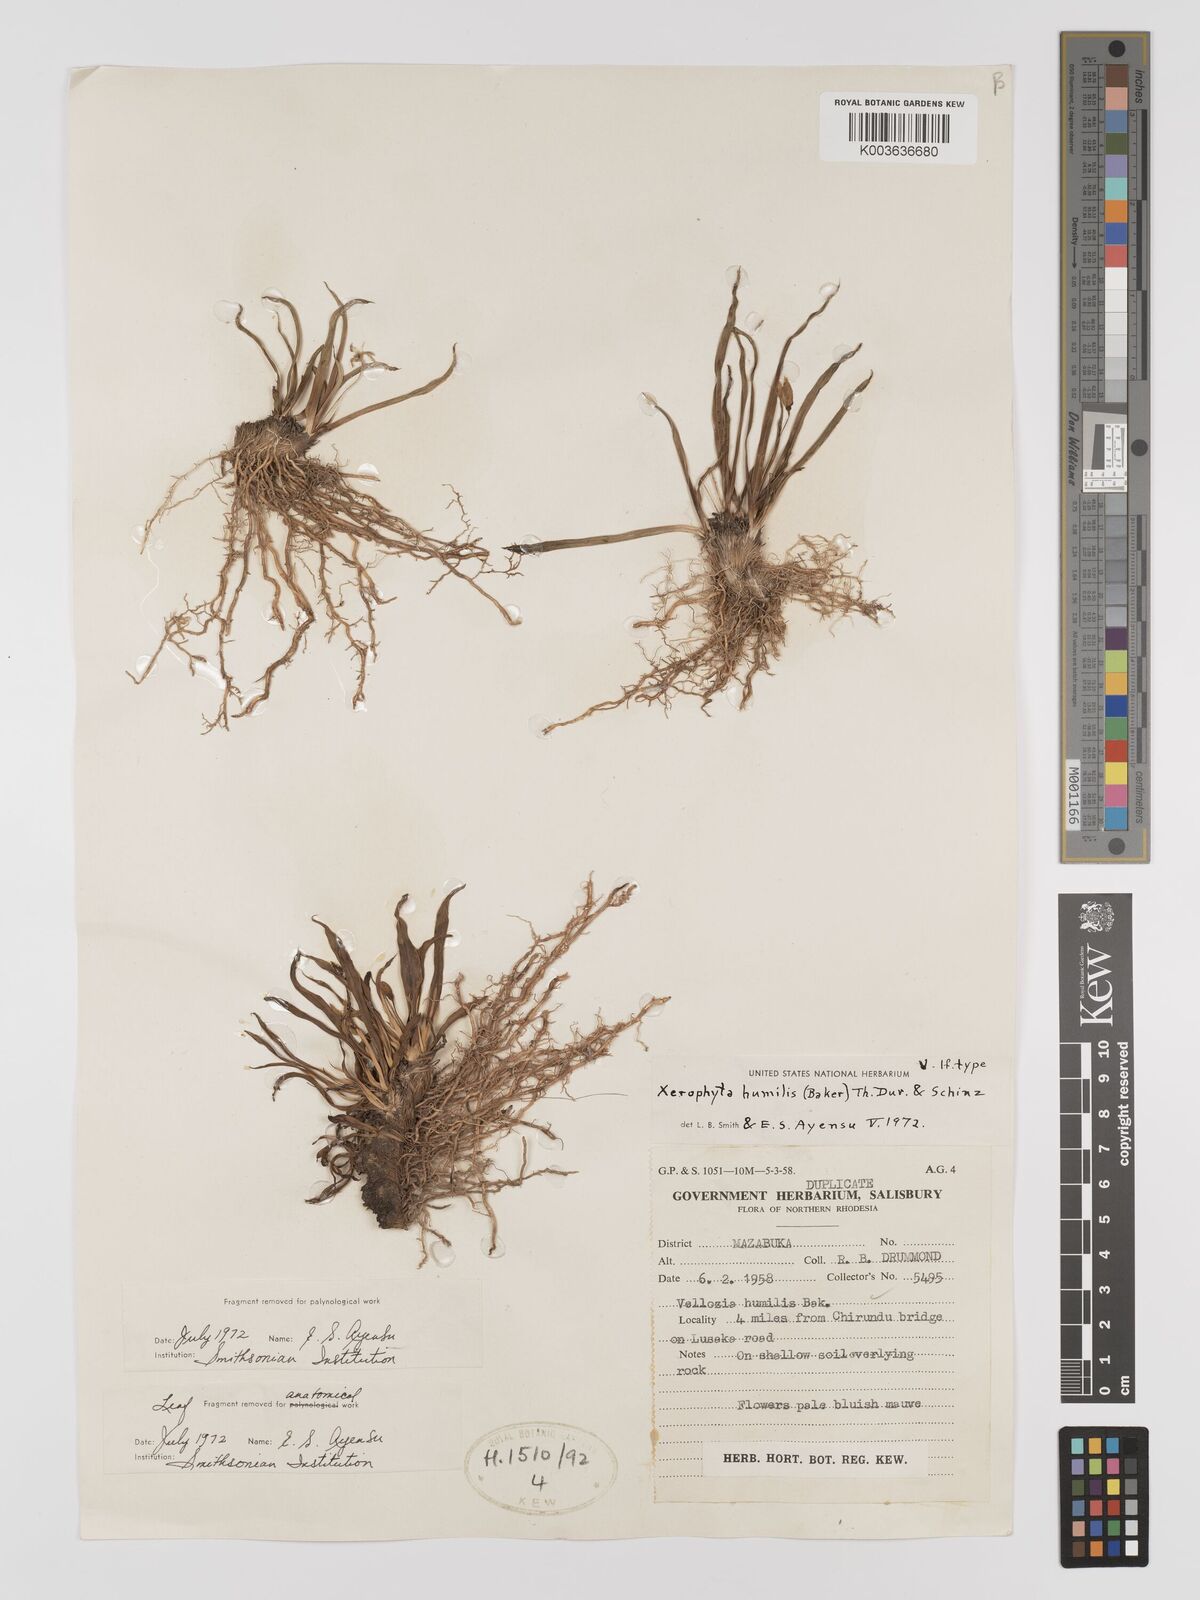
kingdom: Plantae
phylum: Tracheophyta
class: Liliopsida
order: Pandanales
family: Velloziaceae
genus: Xerophyta
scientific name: Xerophyta humilis
